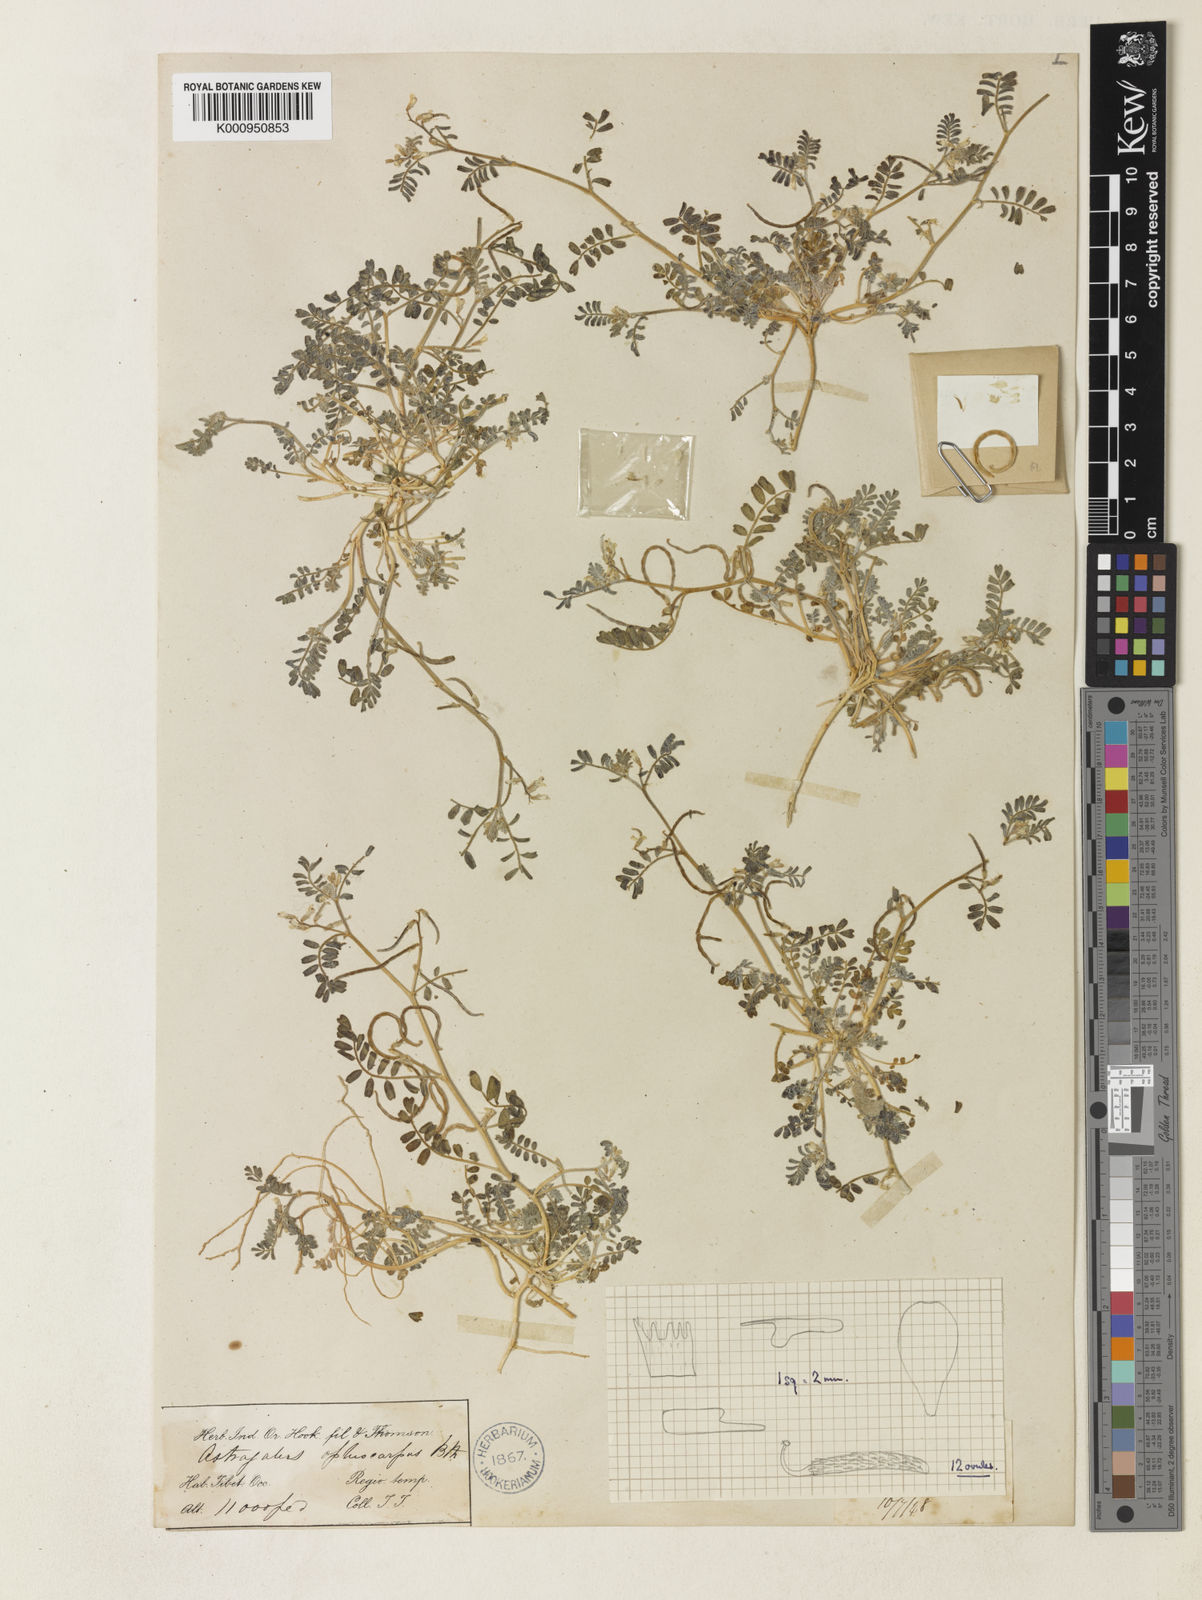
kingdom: Plantae
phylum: Tracheophyta
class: Magnoliopsida
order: Fabales
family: Fabaceae
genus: Astragalus
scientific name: Astragalus
